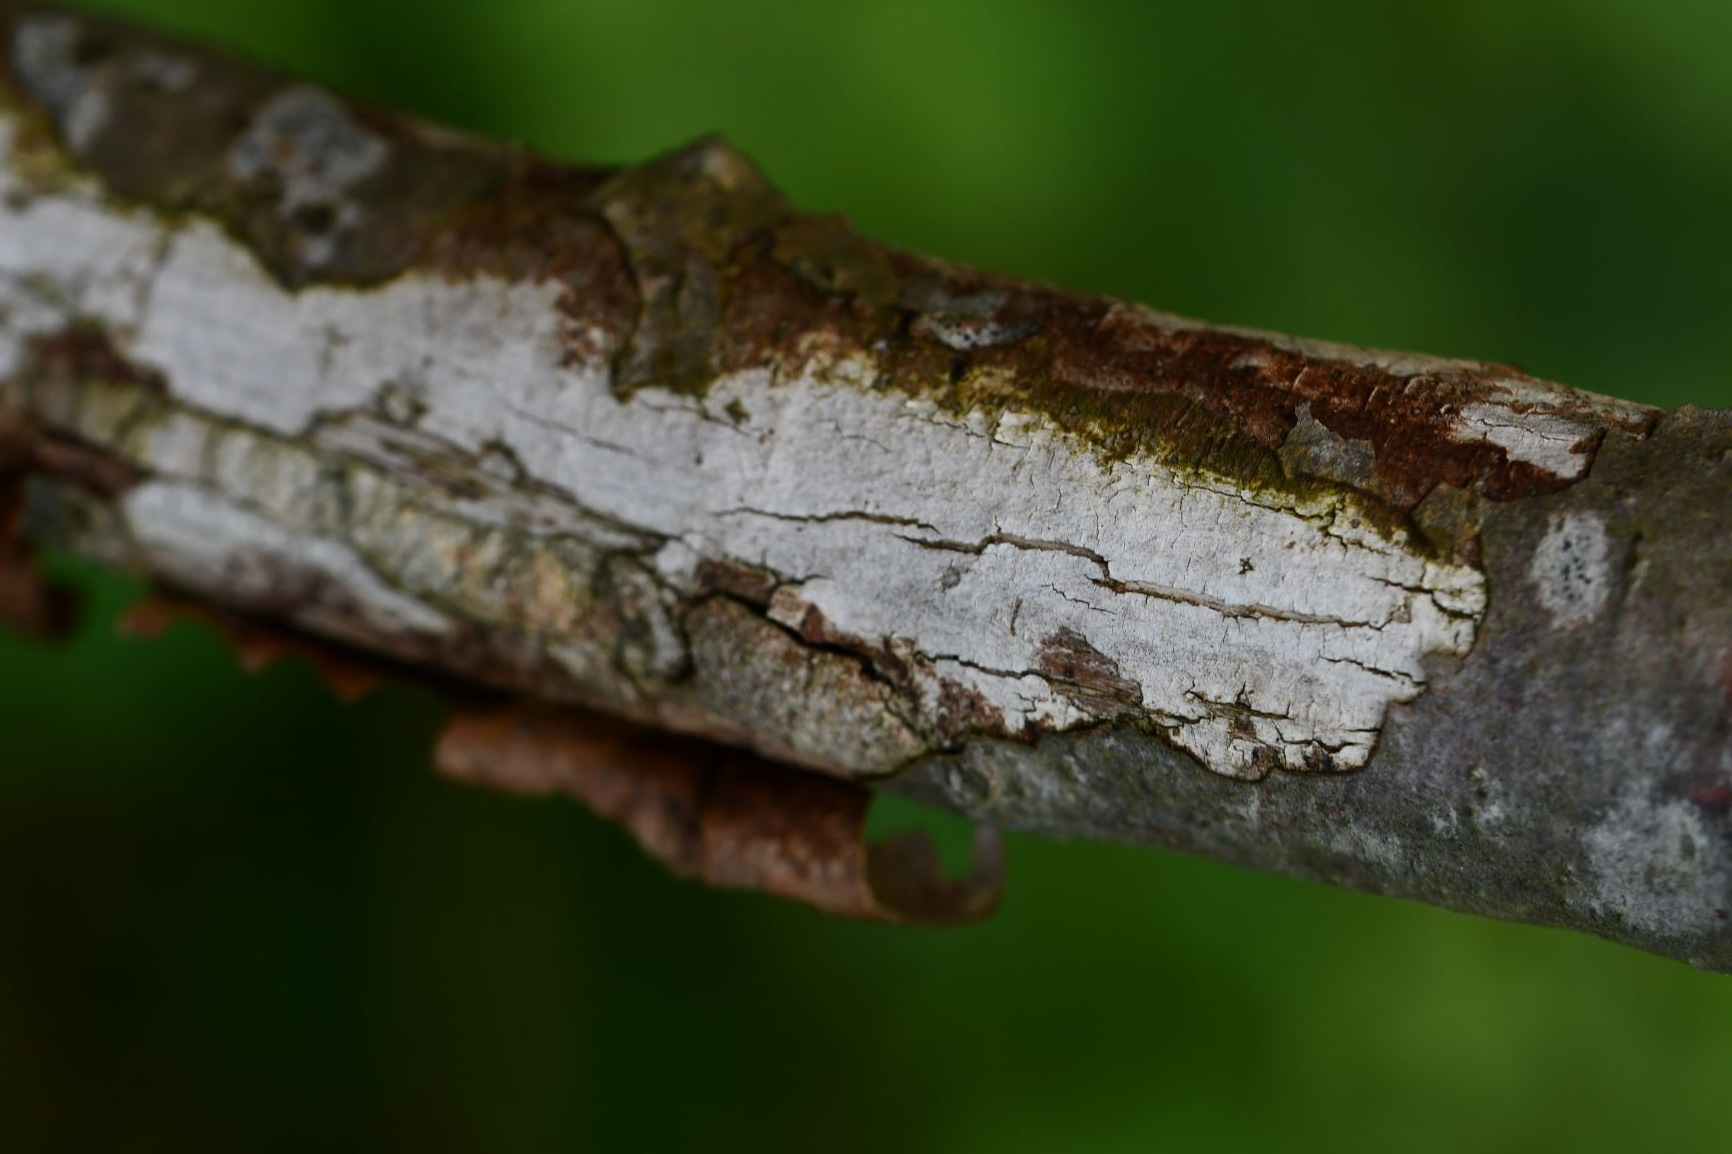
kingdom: Fungi
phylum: Basidiomycota
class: Agaricomycetes
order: Corticiales
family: Corticiaceae
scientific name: Corticiaceae
